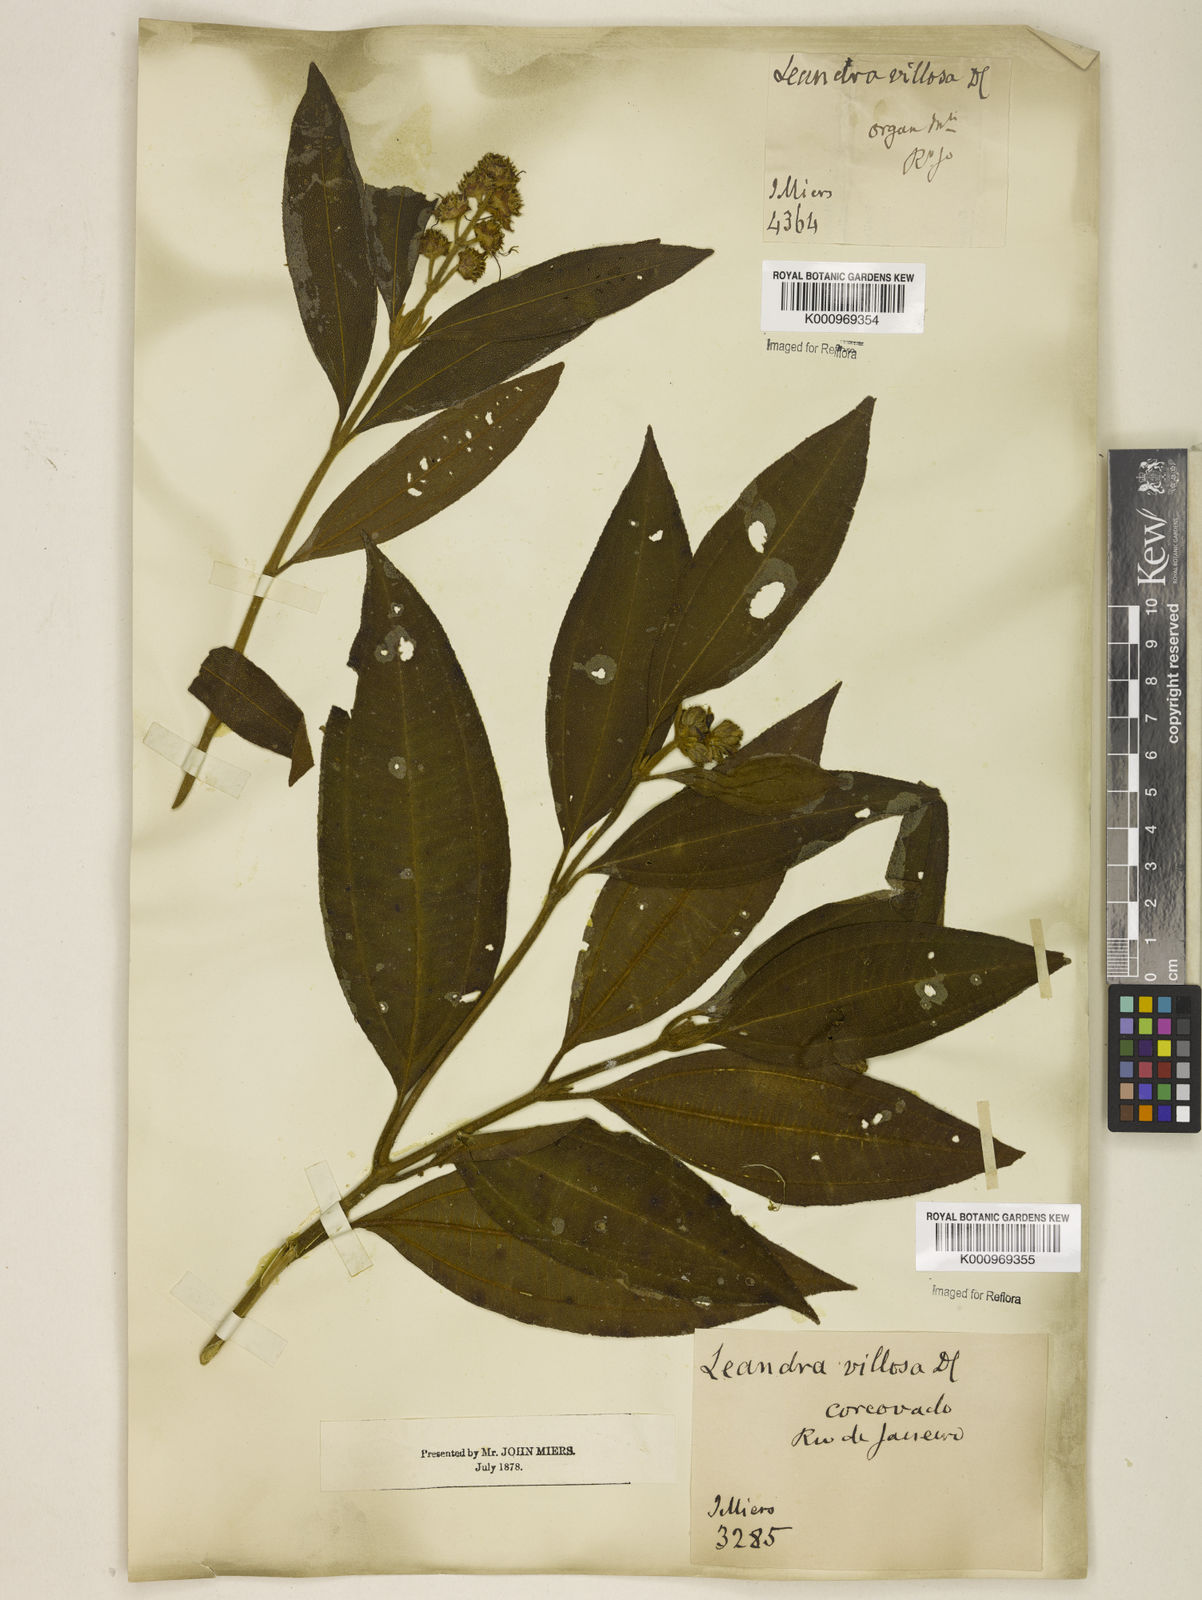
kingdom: Plantae
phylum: Tracheophyta
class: Magnoliopsida
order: Myrtales
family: Melastomataceae
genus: Miconia
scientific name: Miconia melastomoides
